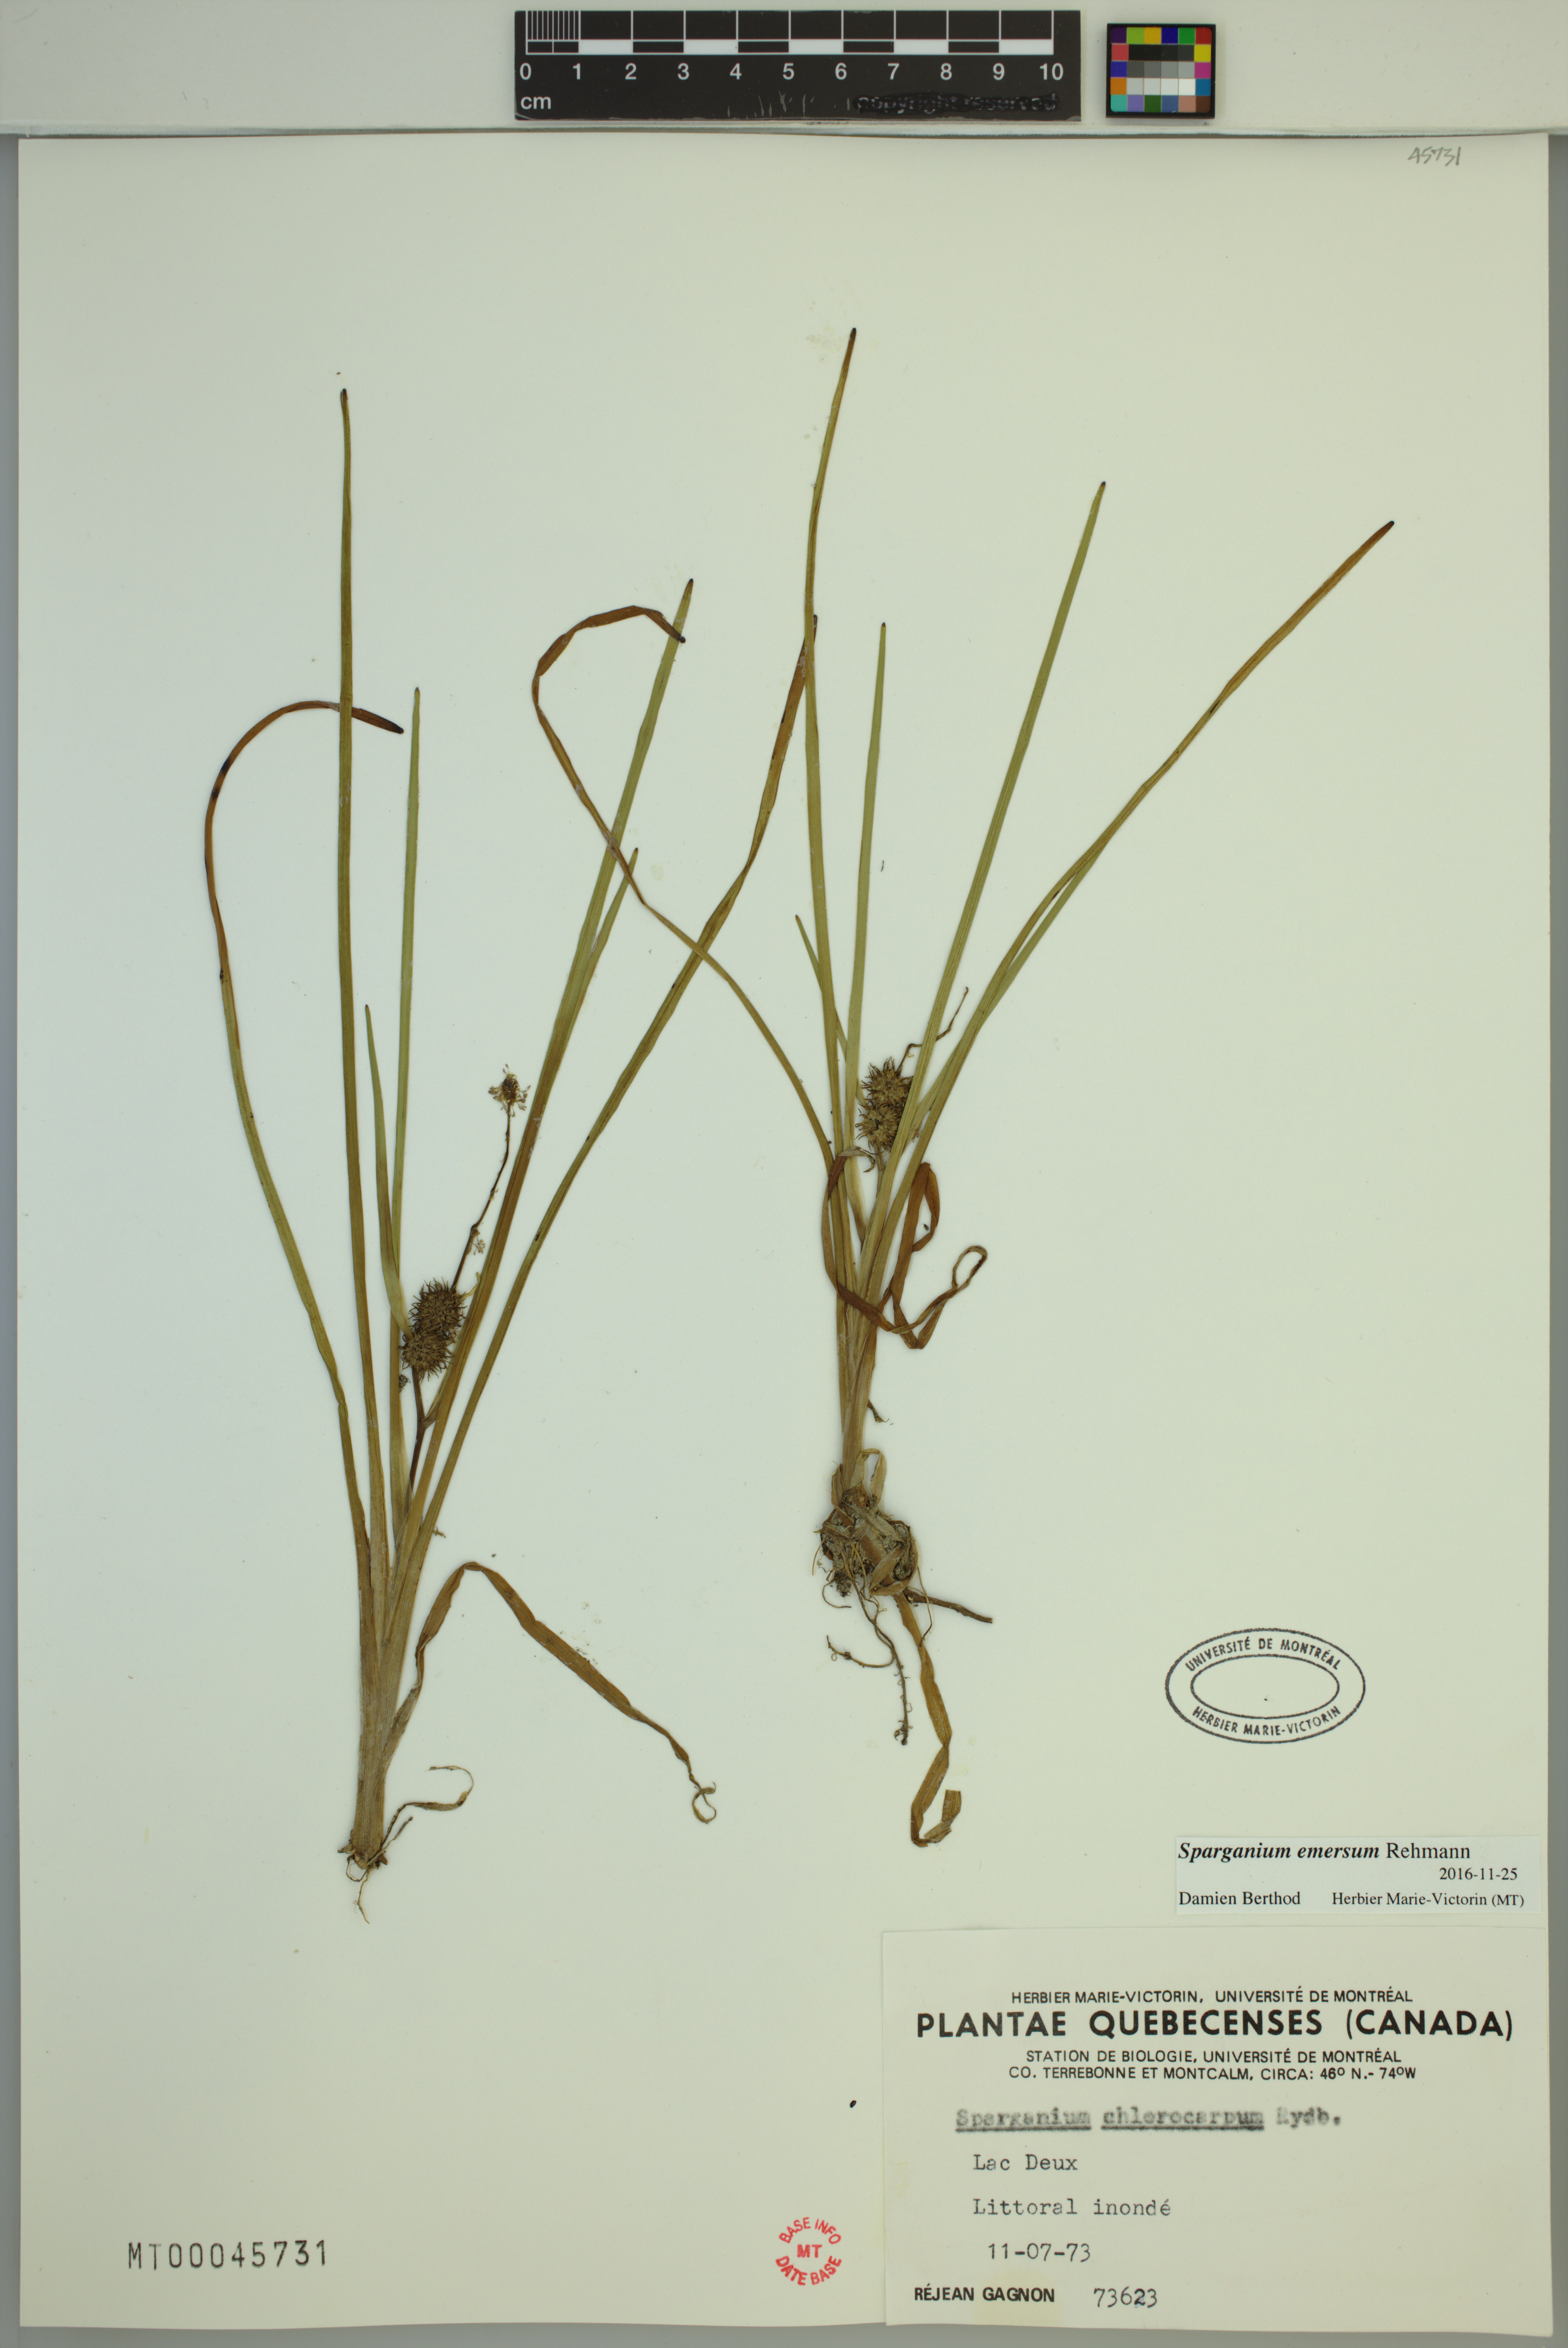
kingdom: Plantae
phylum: Tracheophyta
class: Liliopsida
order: Poales
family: Typhaceae
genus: Sparganium
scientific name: Sparganium emersum
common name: Unbranched bur-reed
